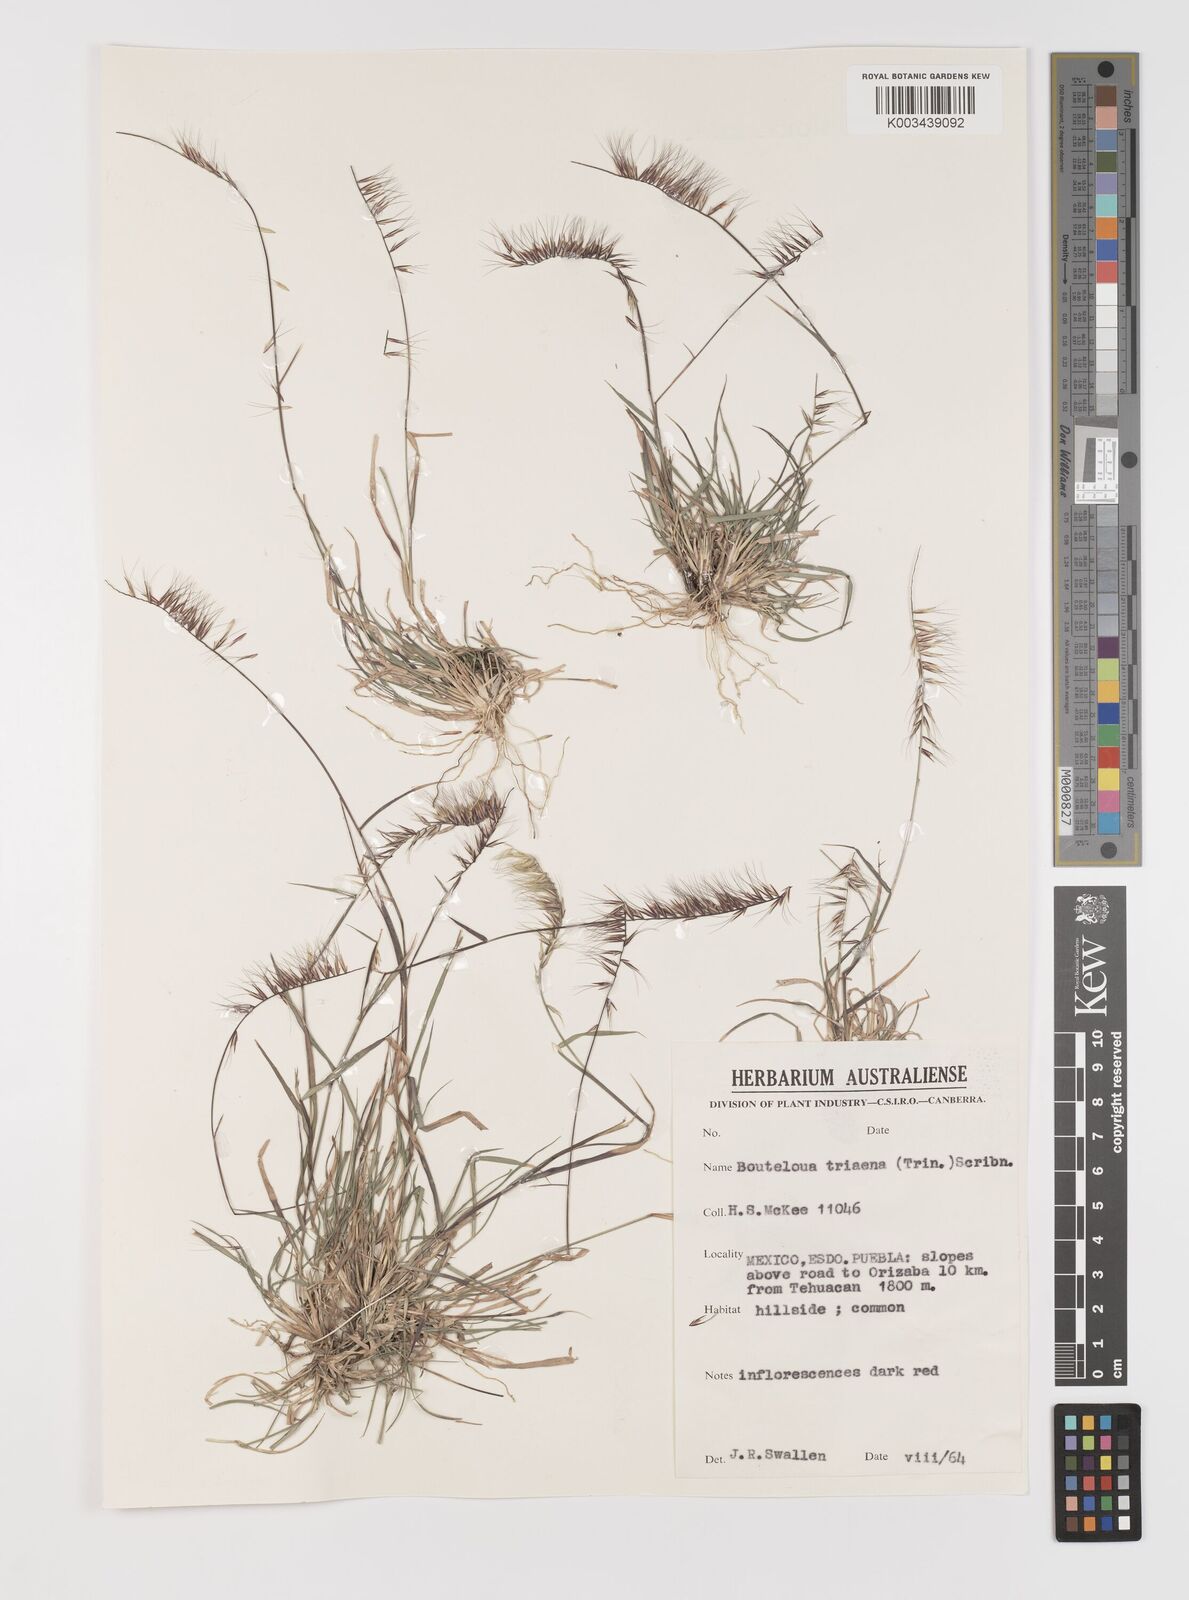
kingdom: Plantae
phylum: Tracheophyta
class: Liliopsida
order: Poales
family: Poaceae
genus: Bouteloua
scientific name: Bouteloua triaena
